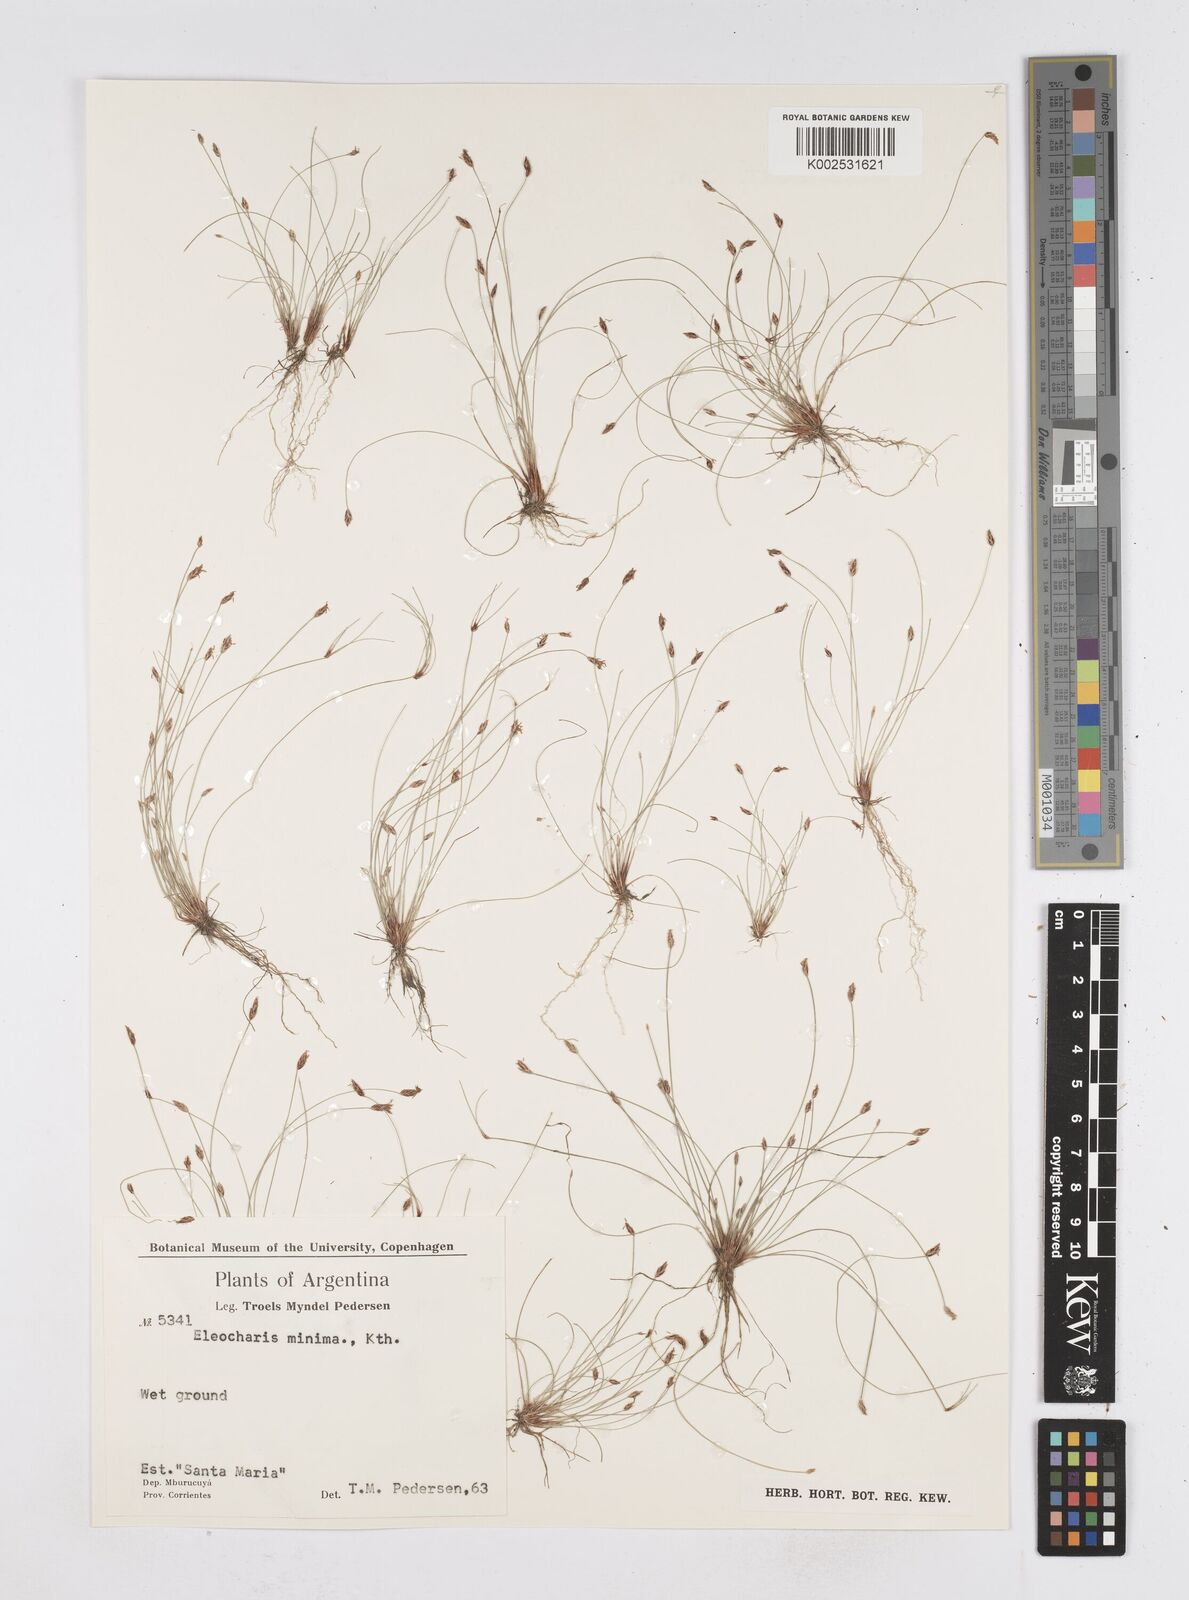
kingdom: Plantae
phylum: Tracheophyta
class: Liliopsida
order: Poales
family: Cyperaceae
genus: Eleocharis
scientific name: Eleocharis minima
